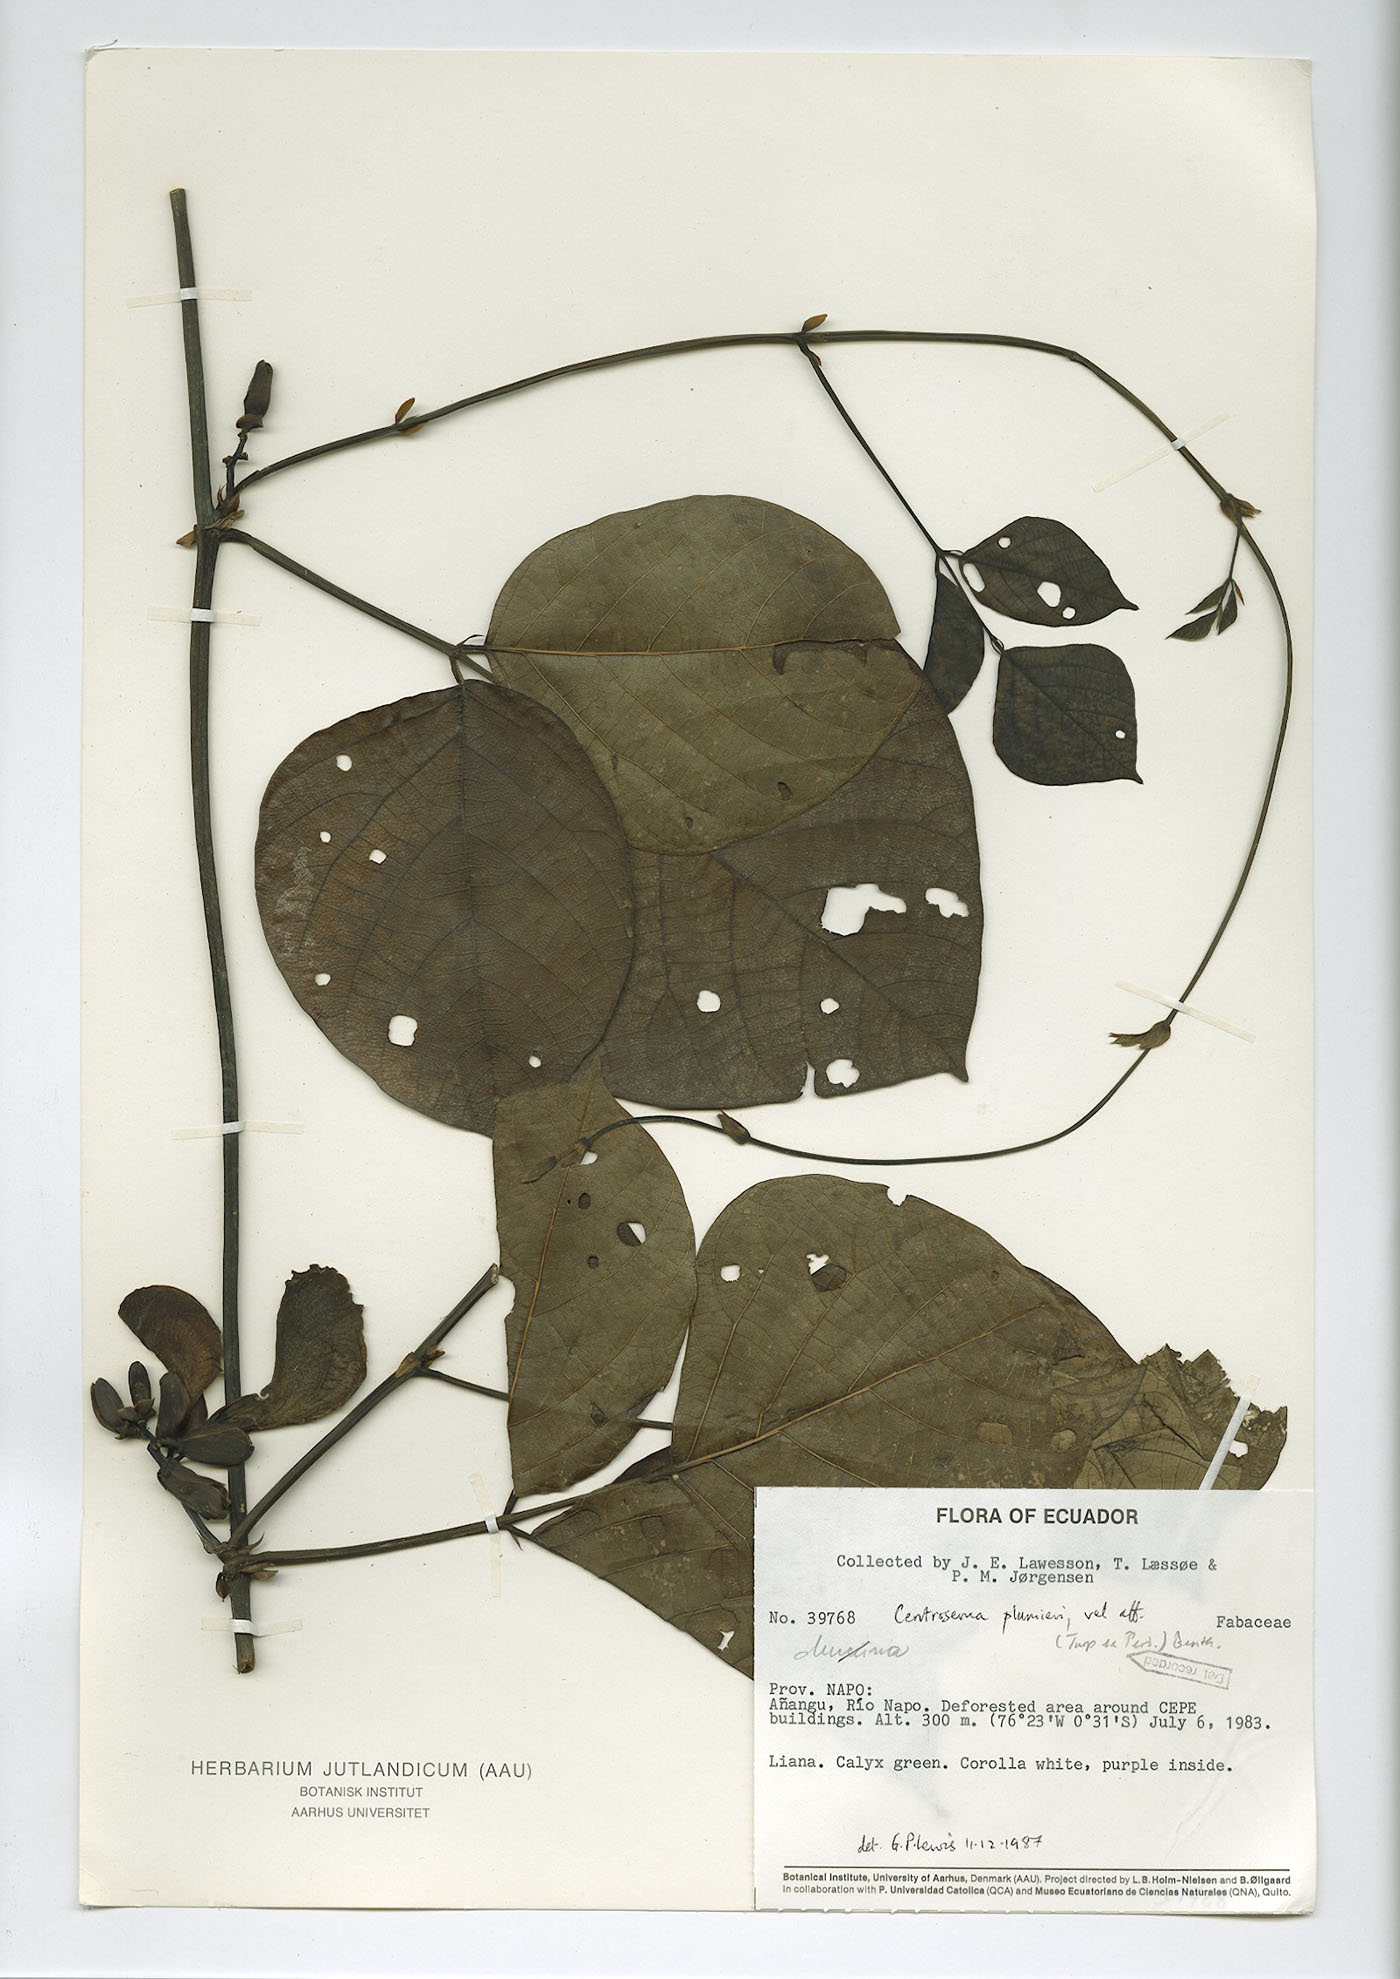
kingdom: Plantae
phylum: Tracheophyta
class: Magnoliopsida
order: Fabales
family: Fabaceae
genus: Centrosema
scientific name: Centrosema plumieri
